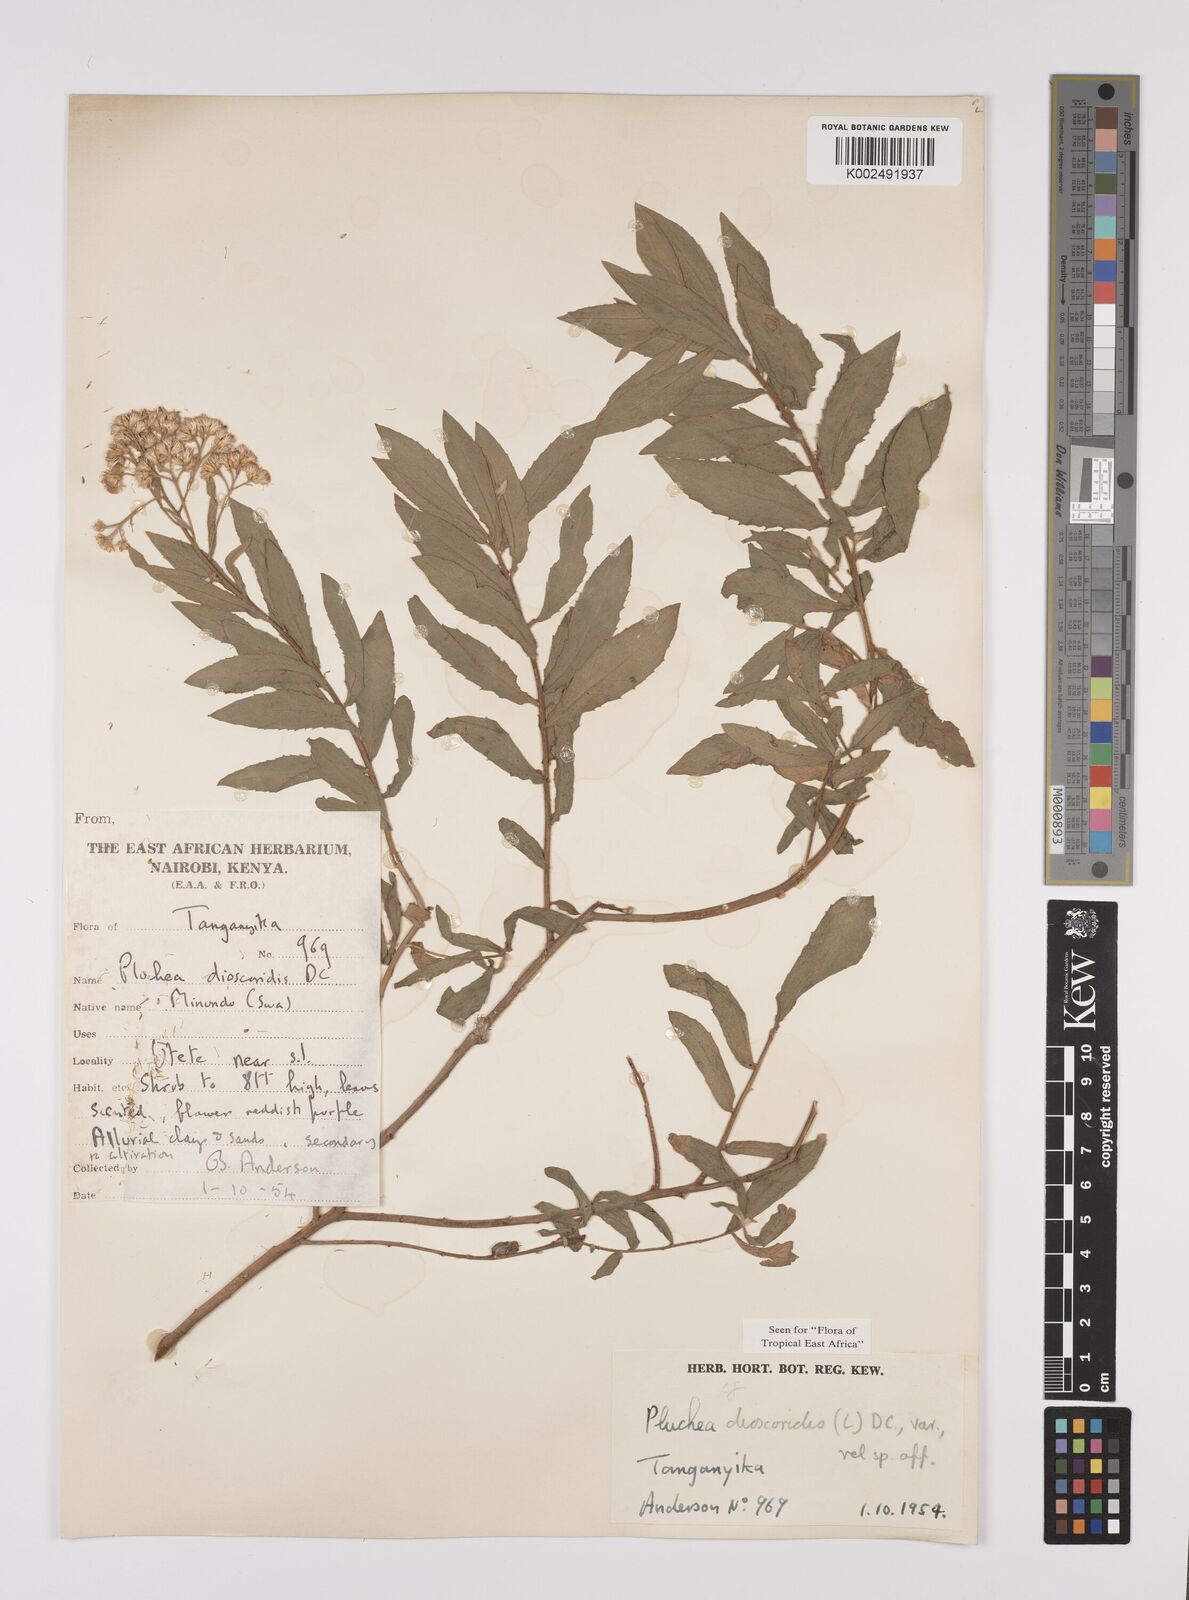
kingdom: Plantae
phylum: Tracheophyta
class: Magnoliopsida
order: Asterales
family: Asteraceae
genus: Pluchea
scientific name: Pluchea dioscoridis
